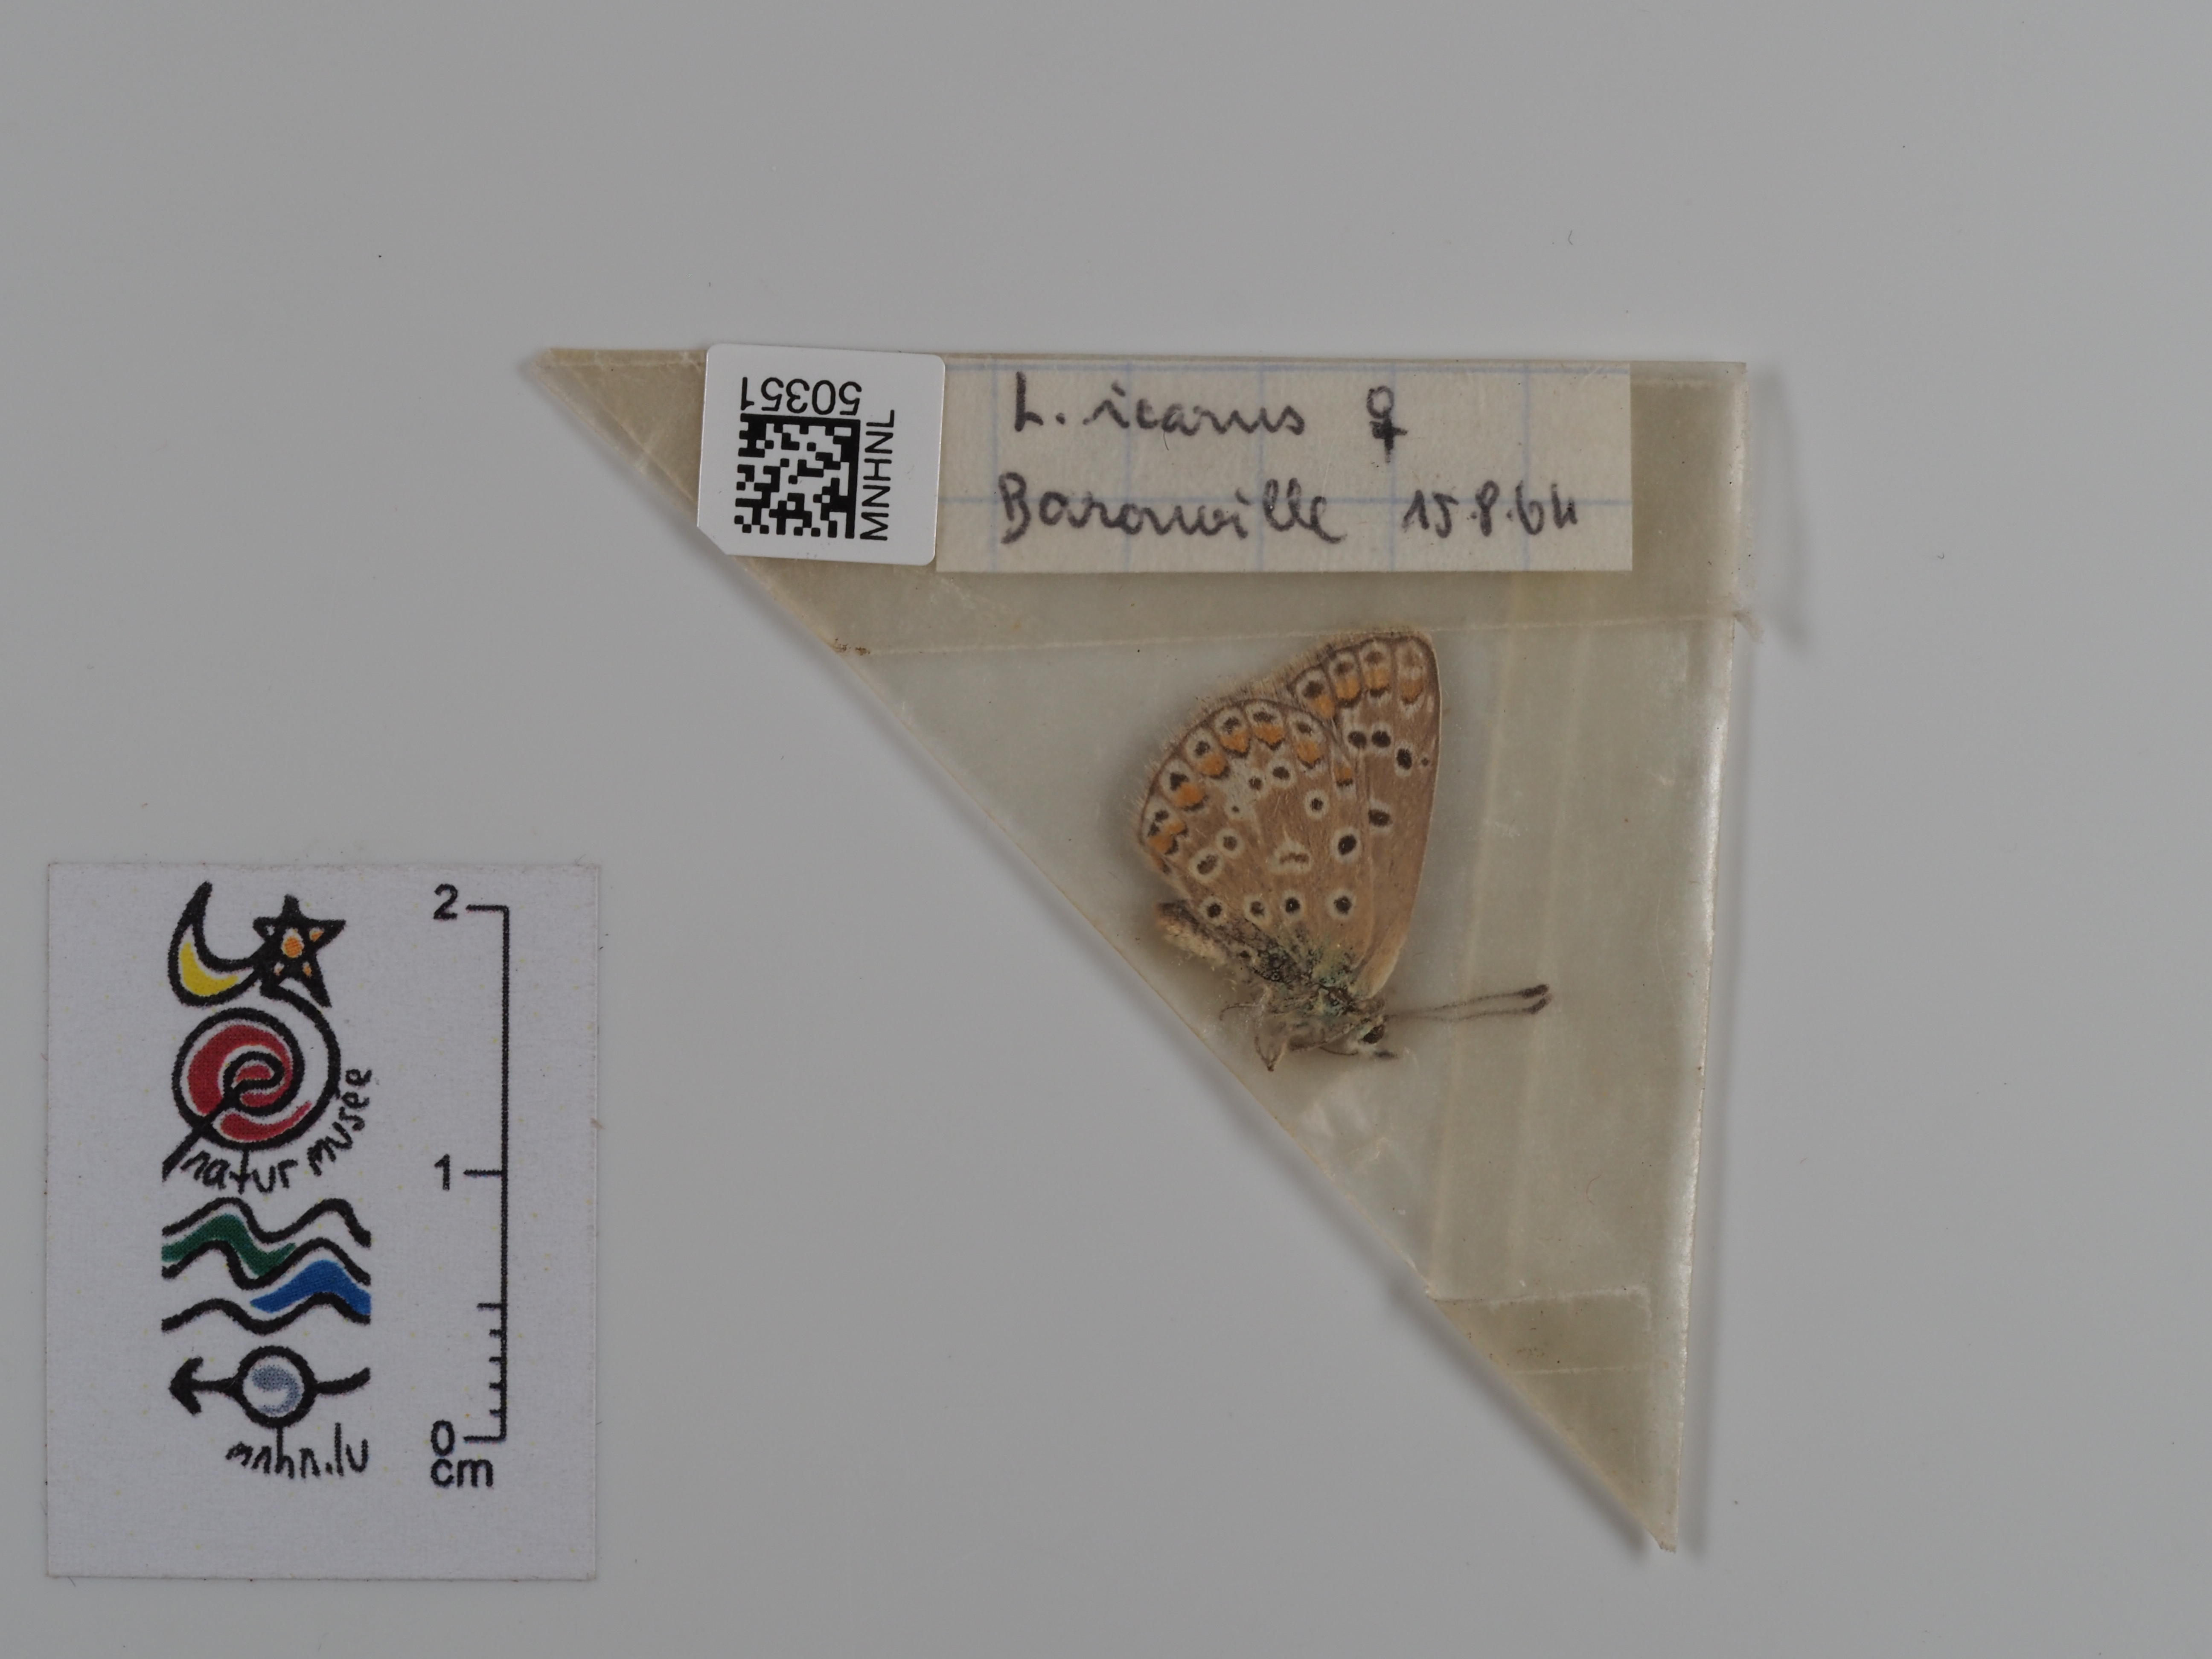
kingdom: Animalia
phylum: Arthropoda
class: Insecta
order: Lepidoptera
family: Lycaenidae
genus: Polyommatus
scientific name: Polyommatus icarus
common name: Common blue
